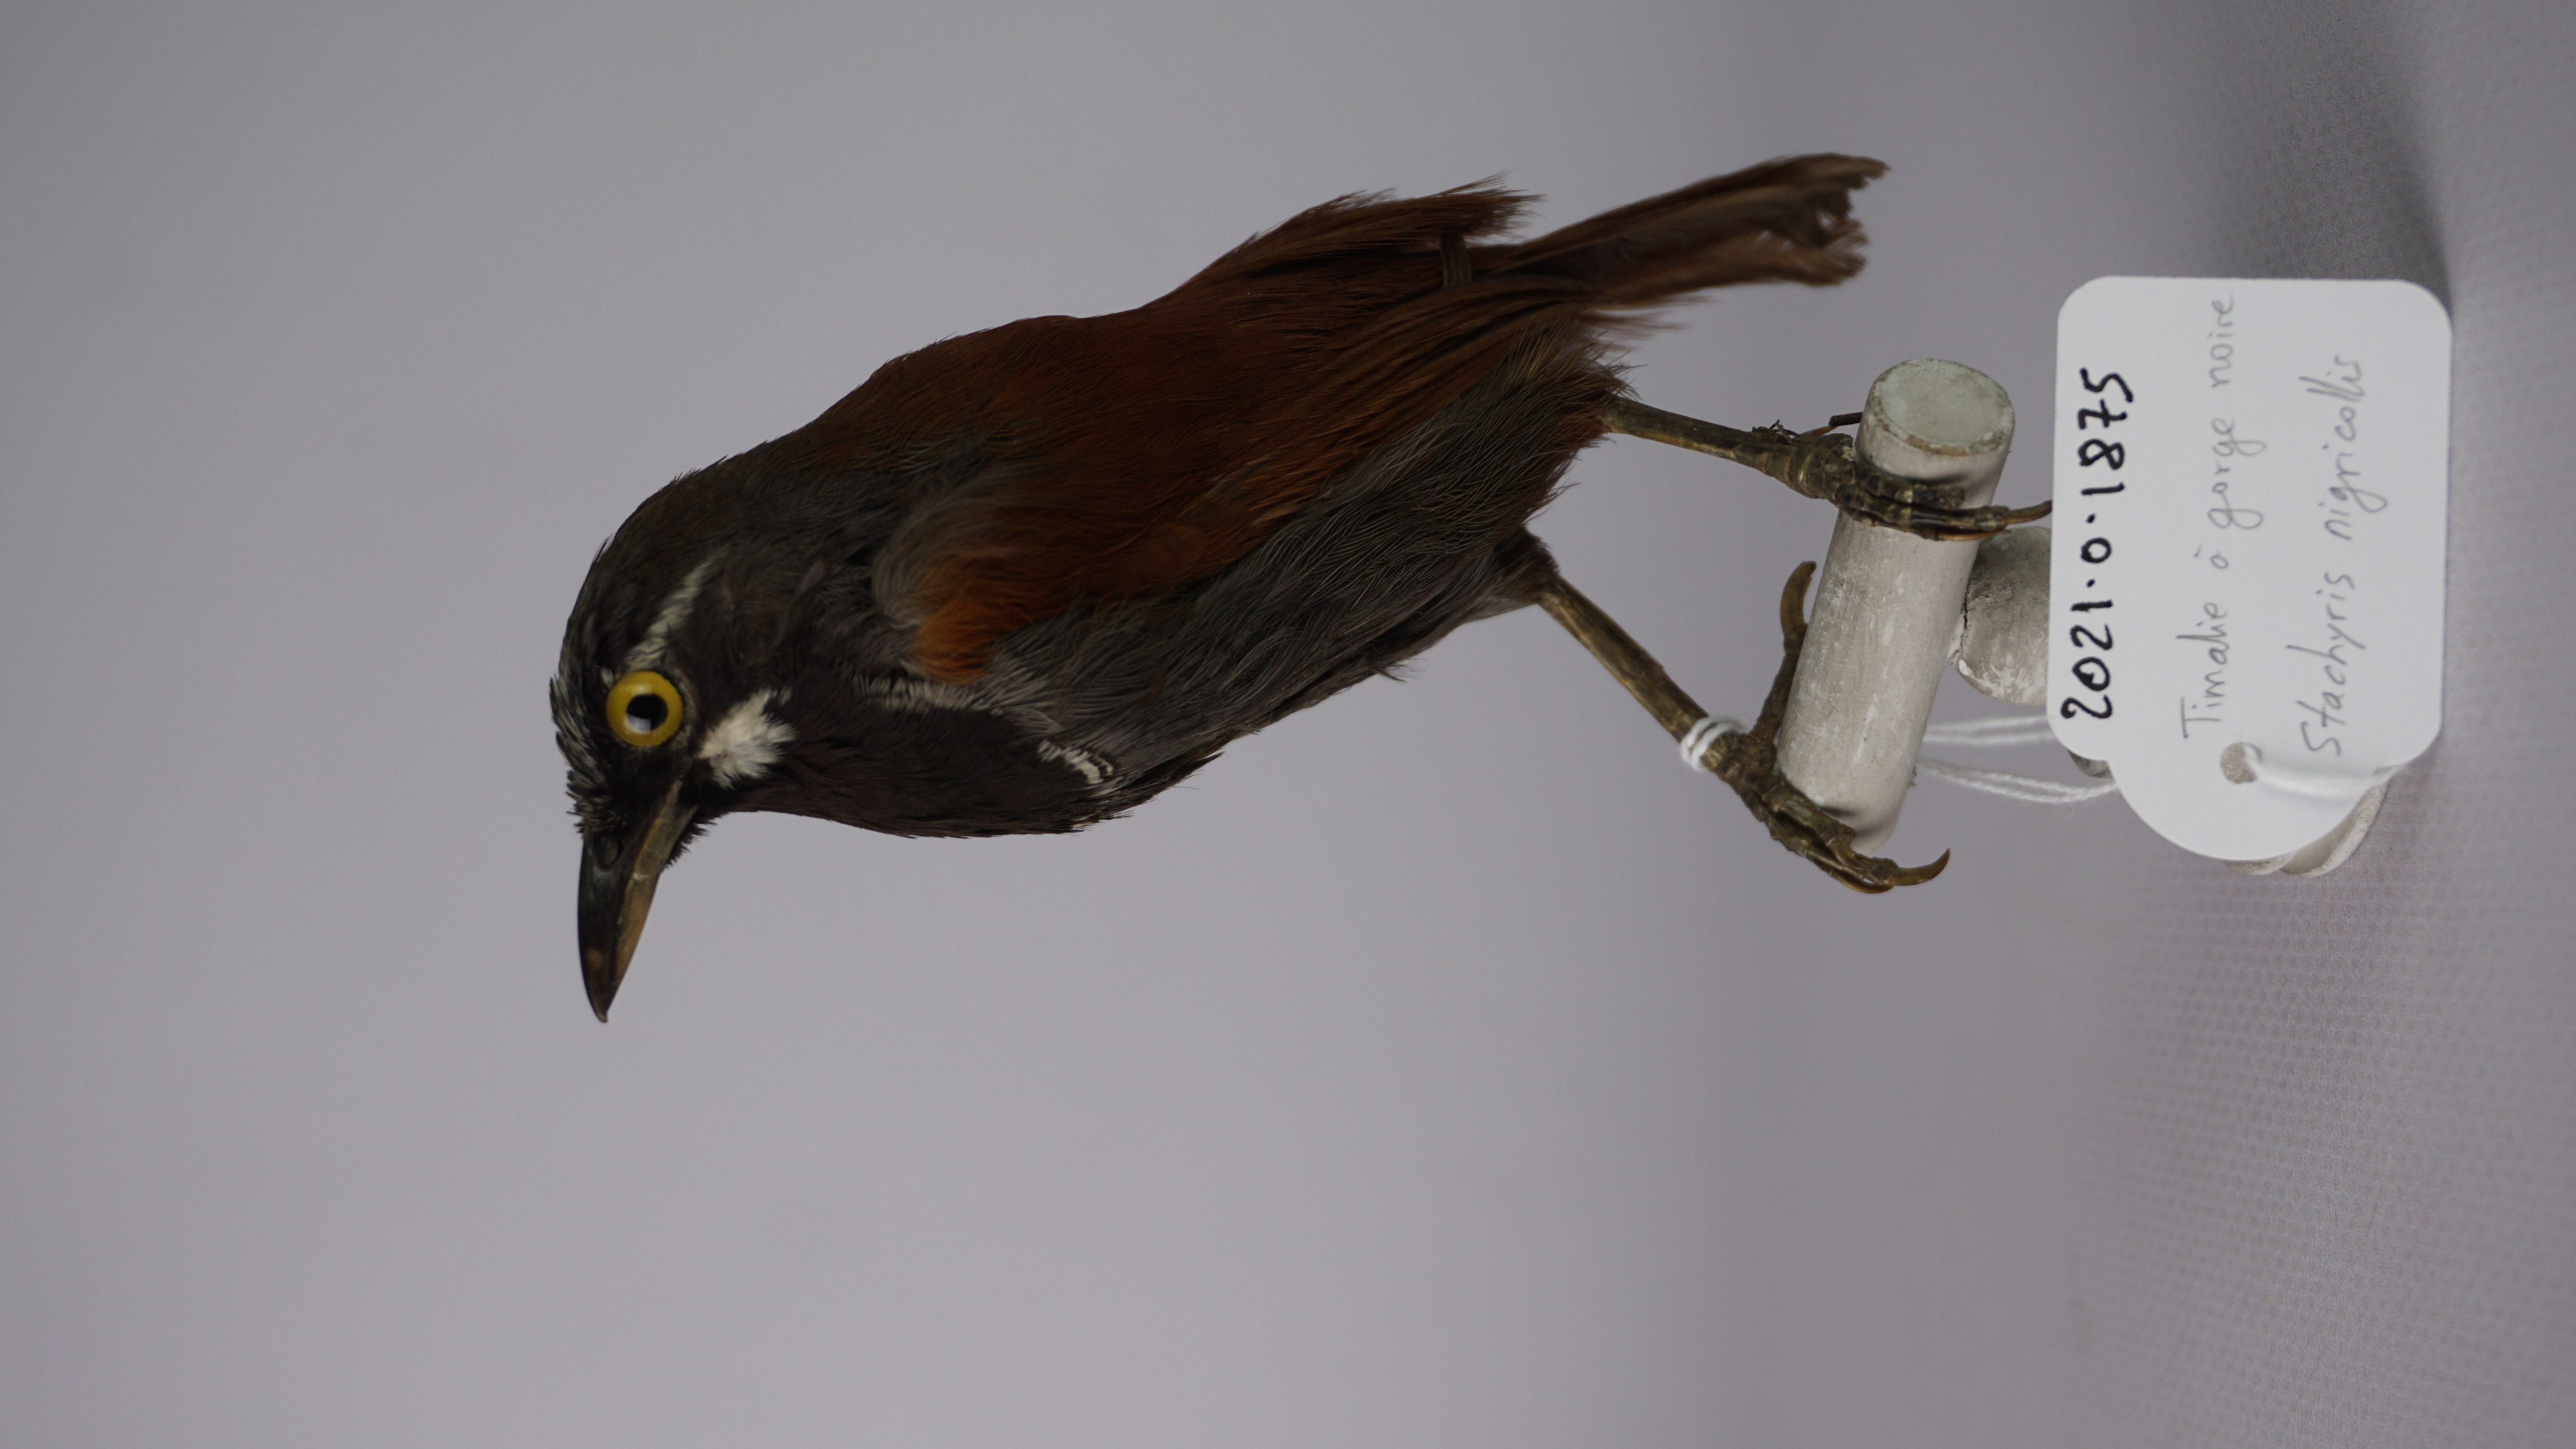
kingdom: Animalia
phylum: Chordata
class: Aves
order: Passeriformes
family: Timaliidae
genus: Stachyris
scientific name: Stachyris nigricollis
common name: Black-throated babbler
